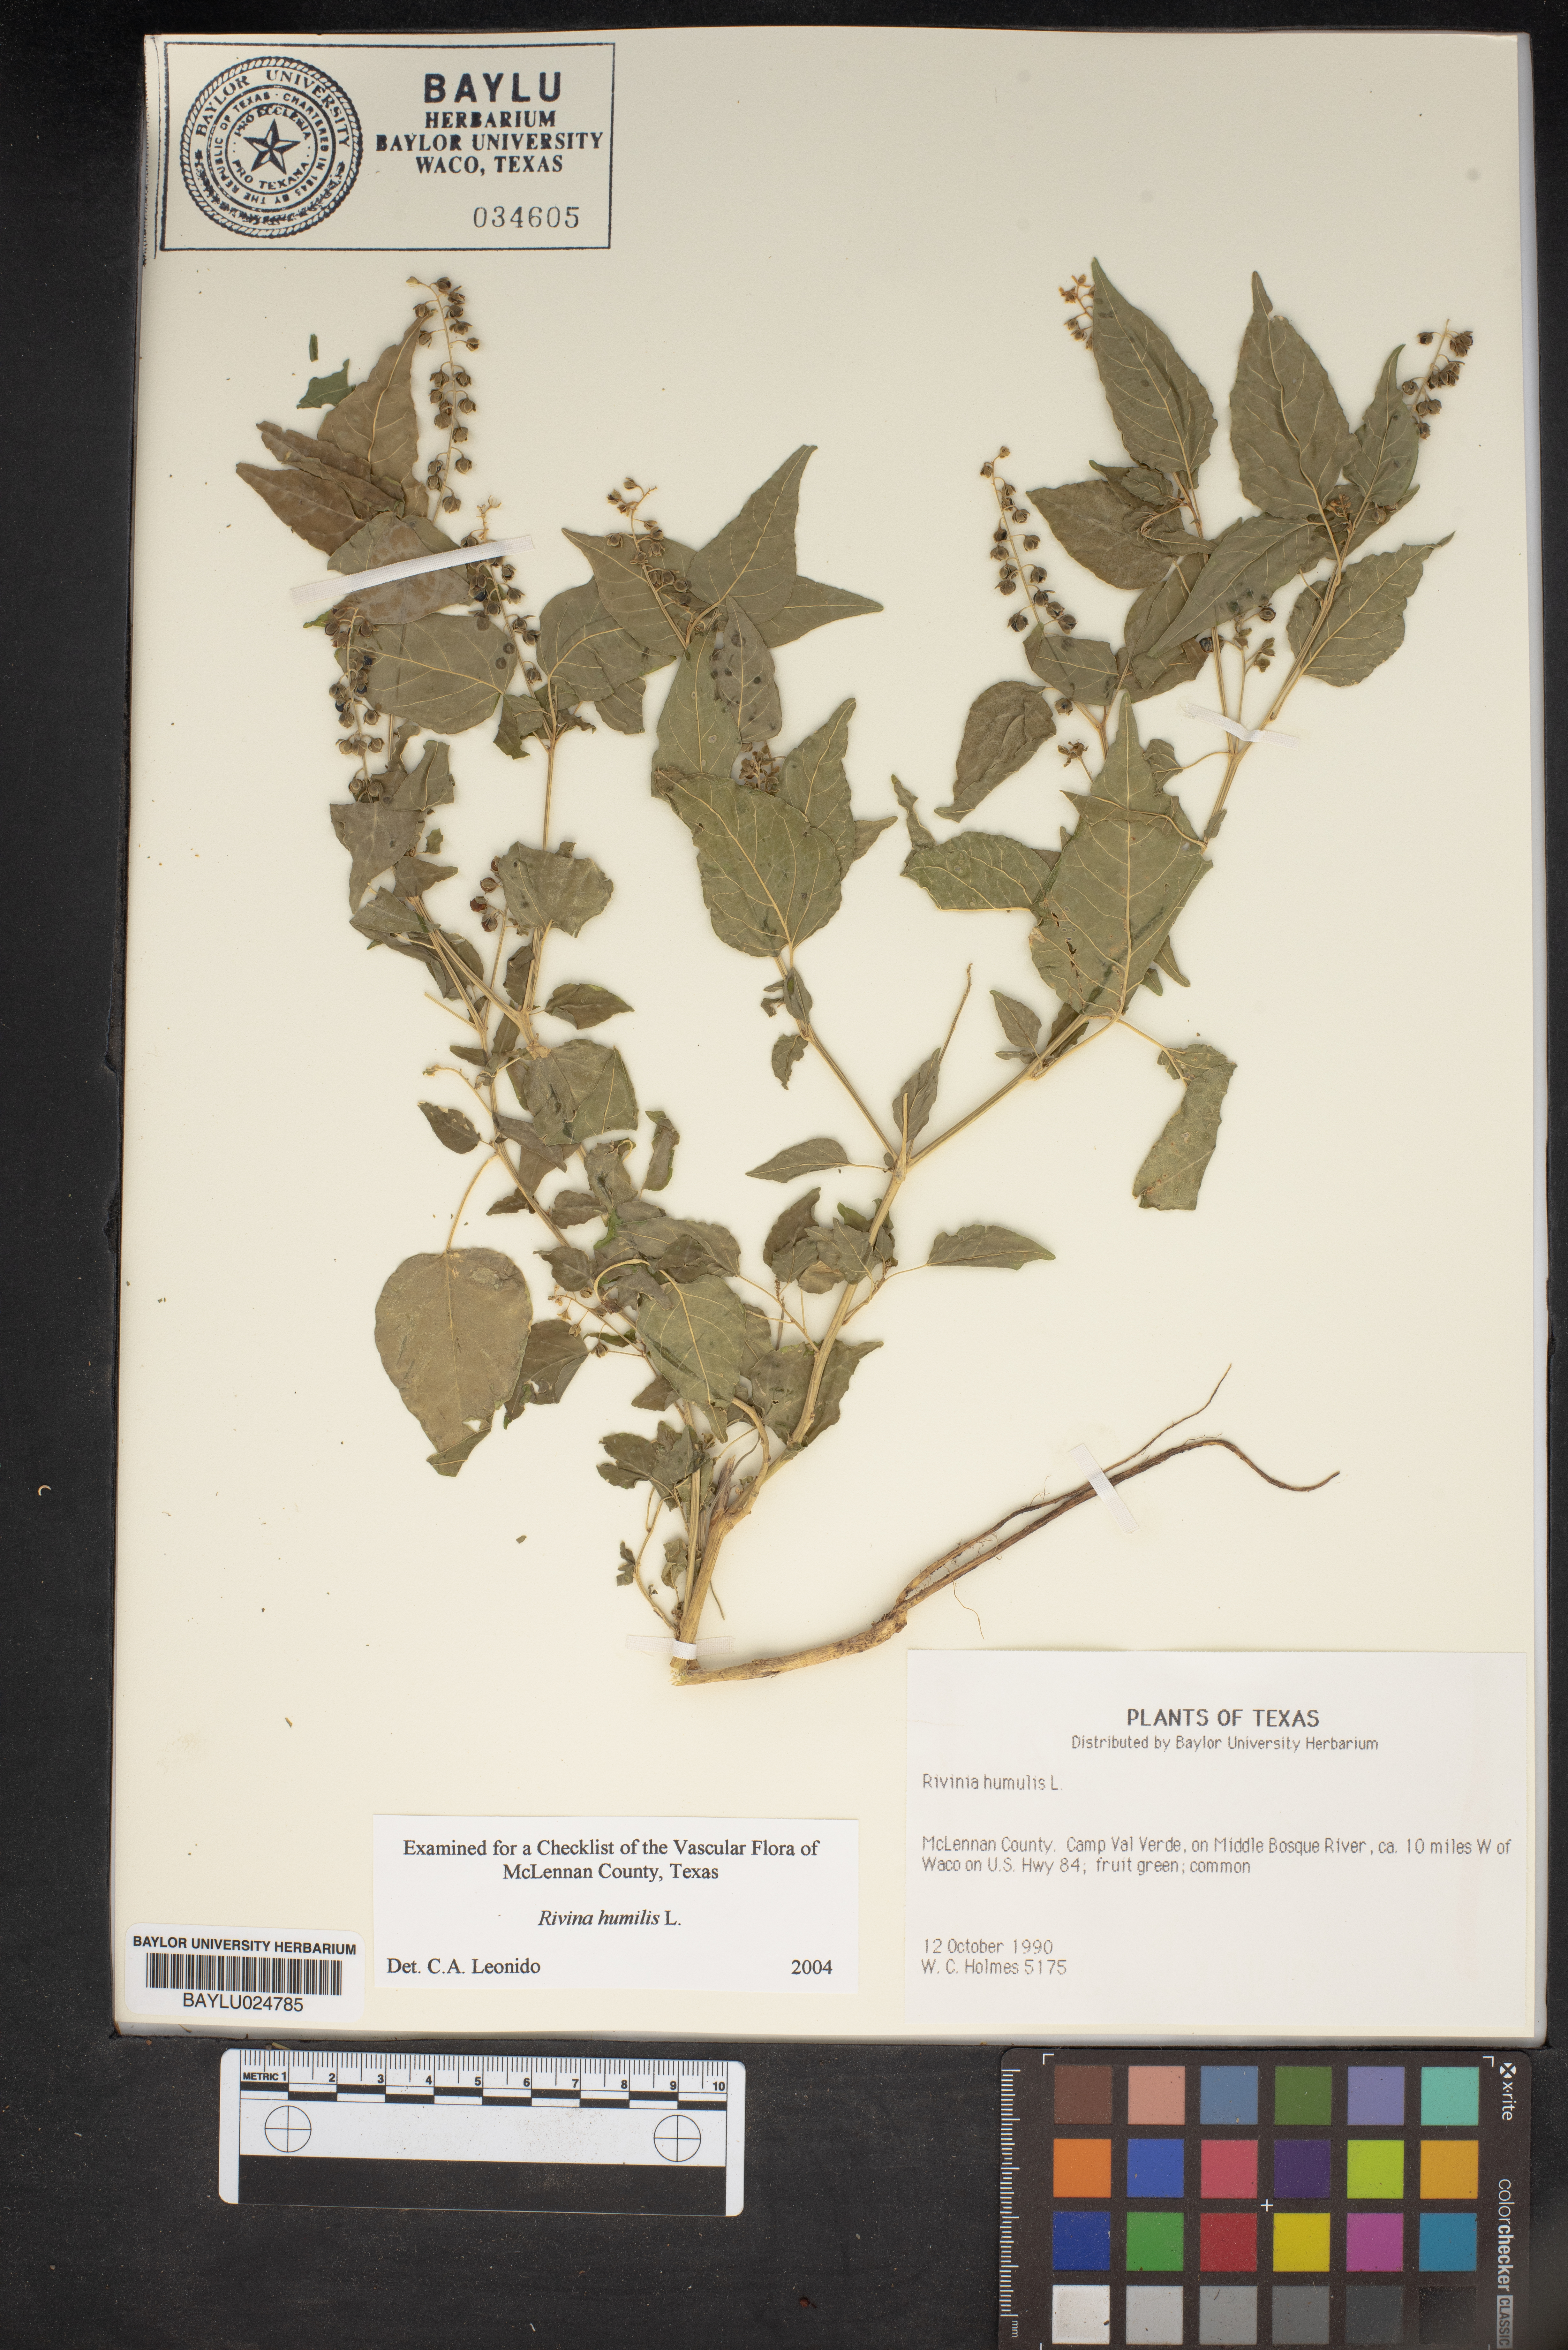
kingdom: Plantae
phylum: Tracheophyta
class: Magnoliopsida
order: Caryophyllales
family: Phytolaccaceae
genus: Rivina
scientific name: Rivina humilis
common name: Rougeplant
